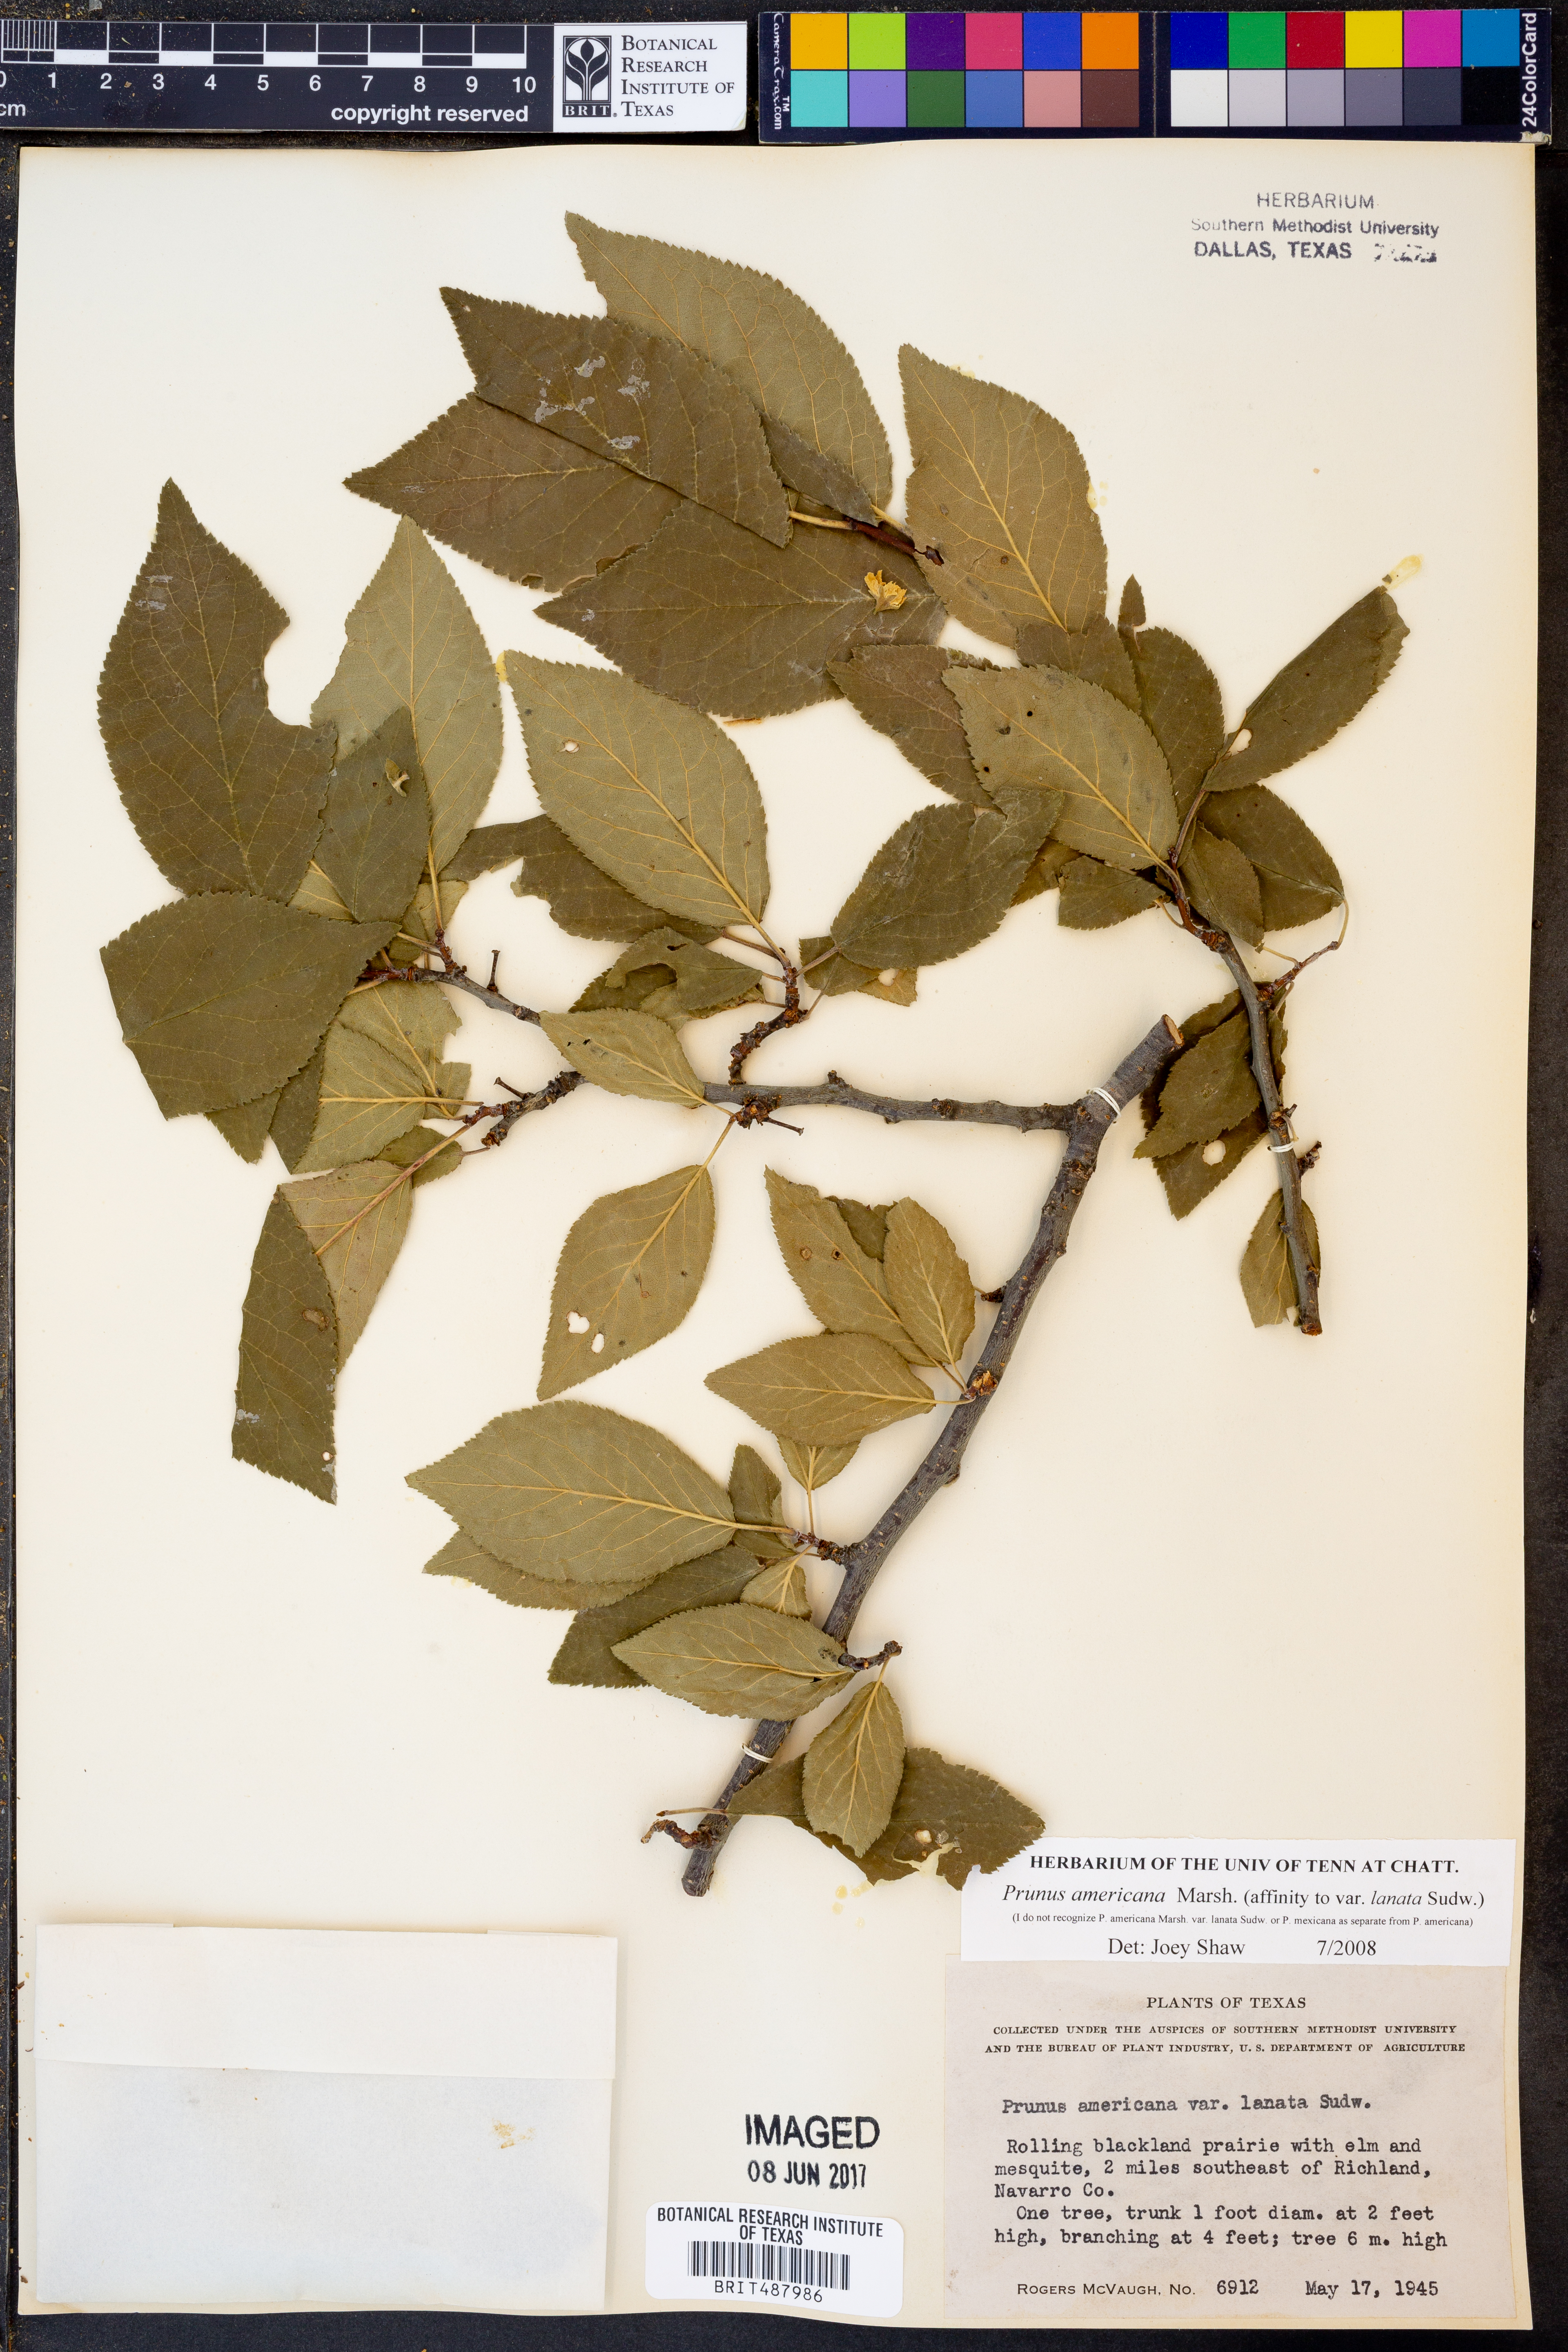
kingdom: Plantae
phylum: Tracheophyta
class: Magnoliopsida
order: Rosales
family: Rosaceae
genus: Prunus
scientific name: Prunus americana
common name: American plum
